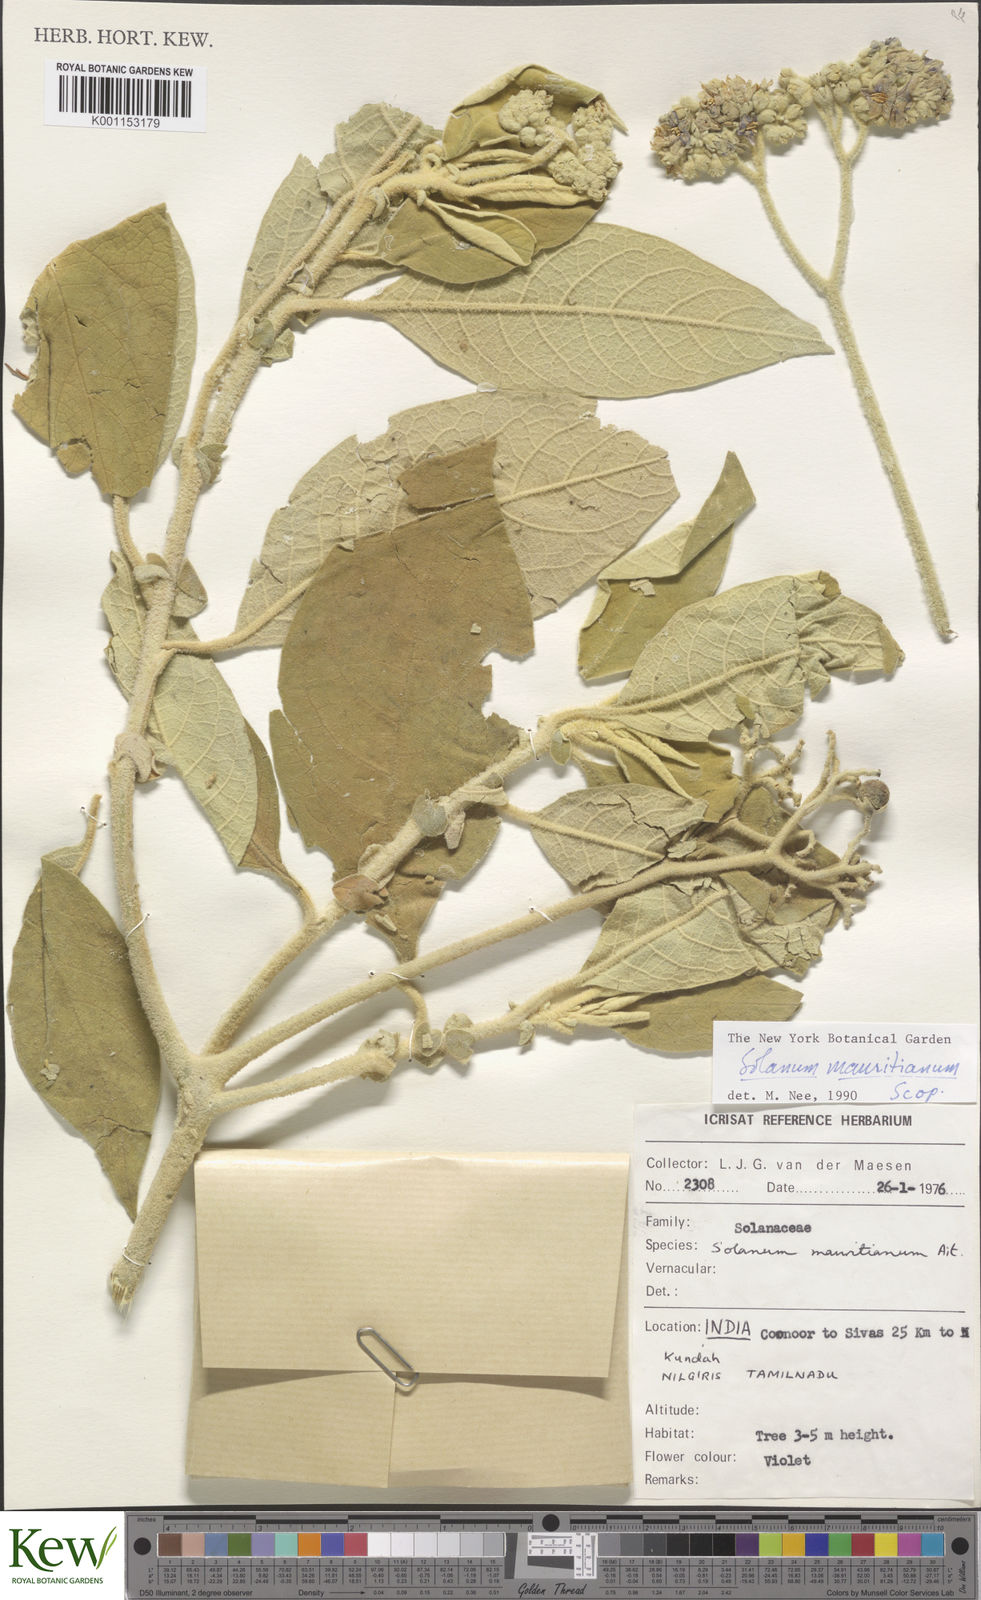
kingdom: Plantae
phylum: Tracheophyta
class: Magnoliopsida
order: Solanales
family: Solanaceae
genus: Solanum
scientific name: Solanum mauritianum
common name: Earleaf nightshade
